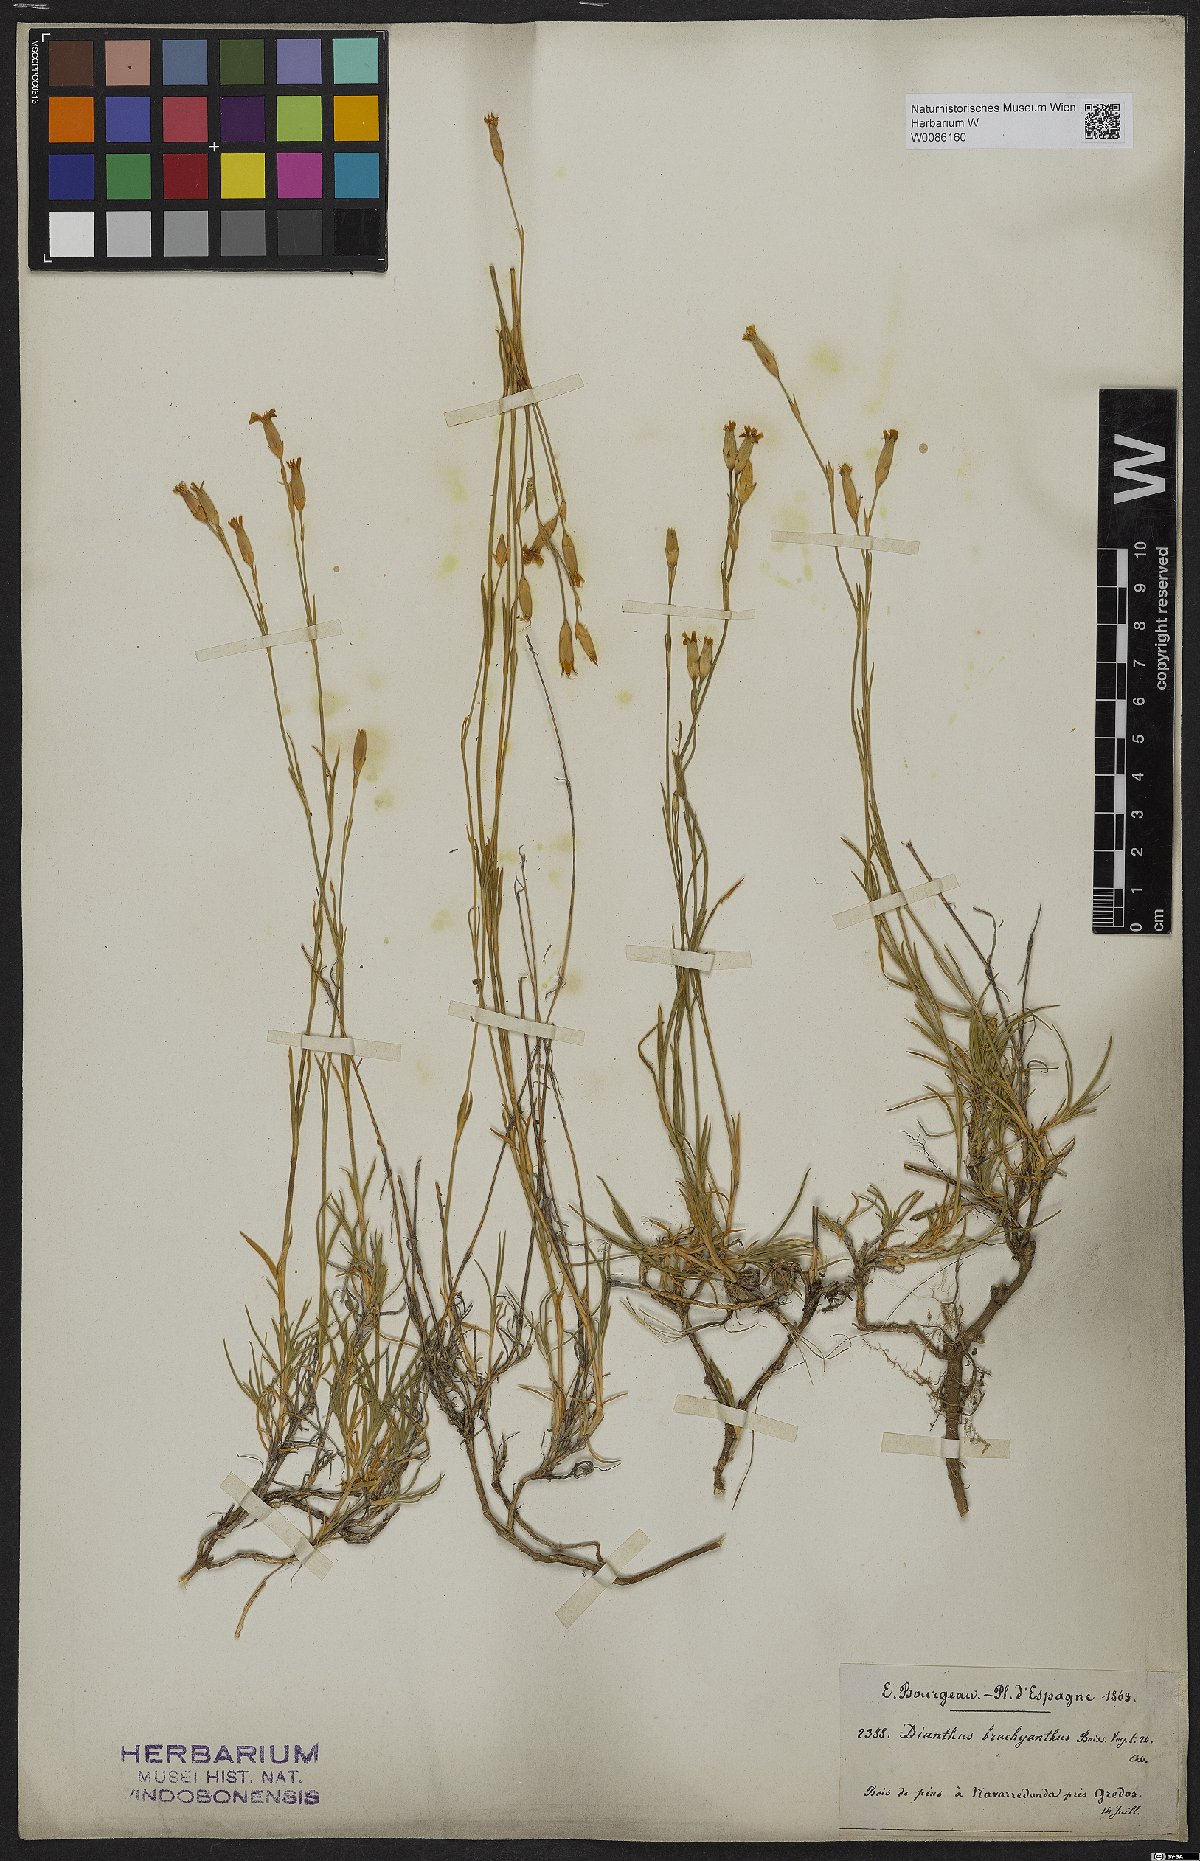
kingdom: Plantae
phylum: Tracheophyta
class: Magnoliopsida
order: Caryophyllales
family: Caryophyllaceae
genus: Dianthus
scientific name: Dianthus pungens
